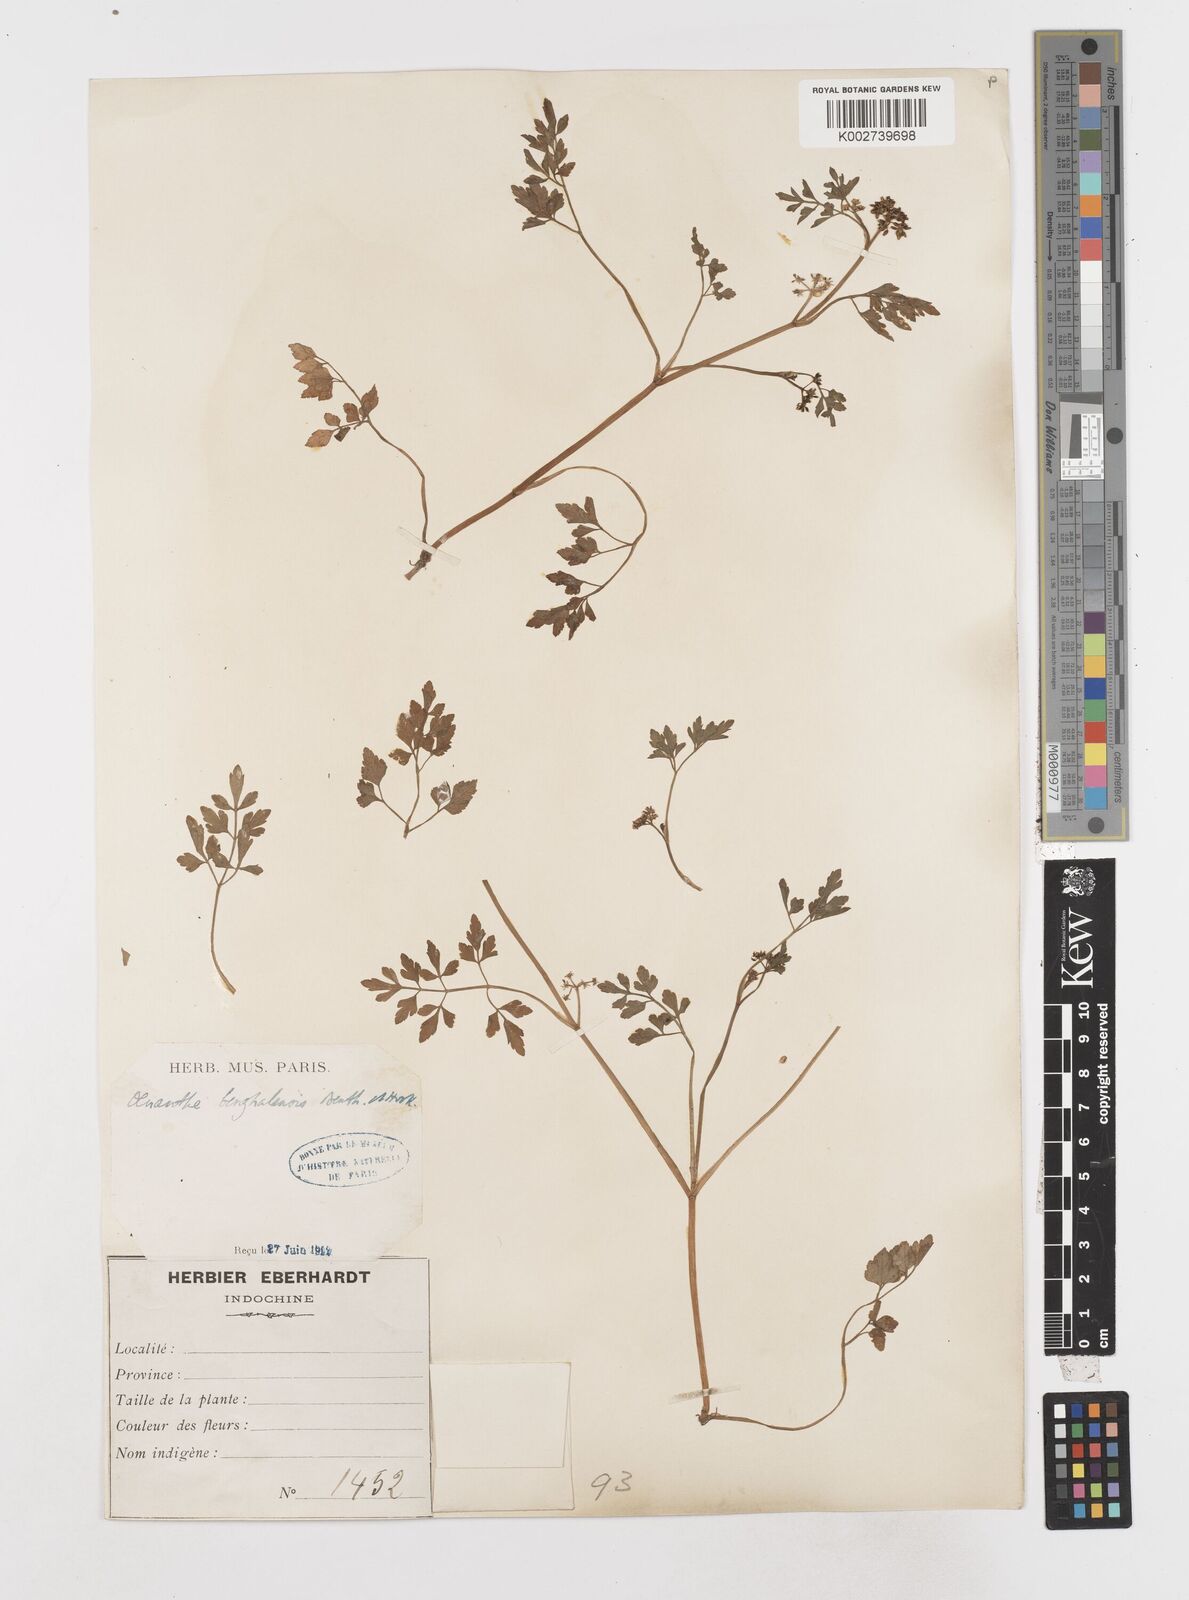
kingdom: Plantae
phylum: Tracheophyta
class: Magnoliopsida
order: Apiales
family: Apiaceae
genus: Oenanthe
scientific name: Oenanthe javanica
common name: Java water-dropwort
